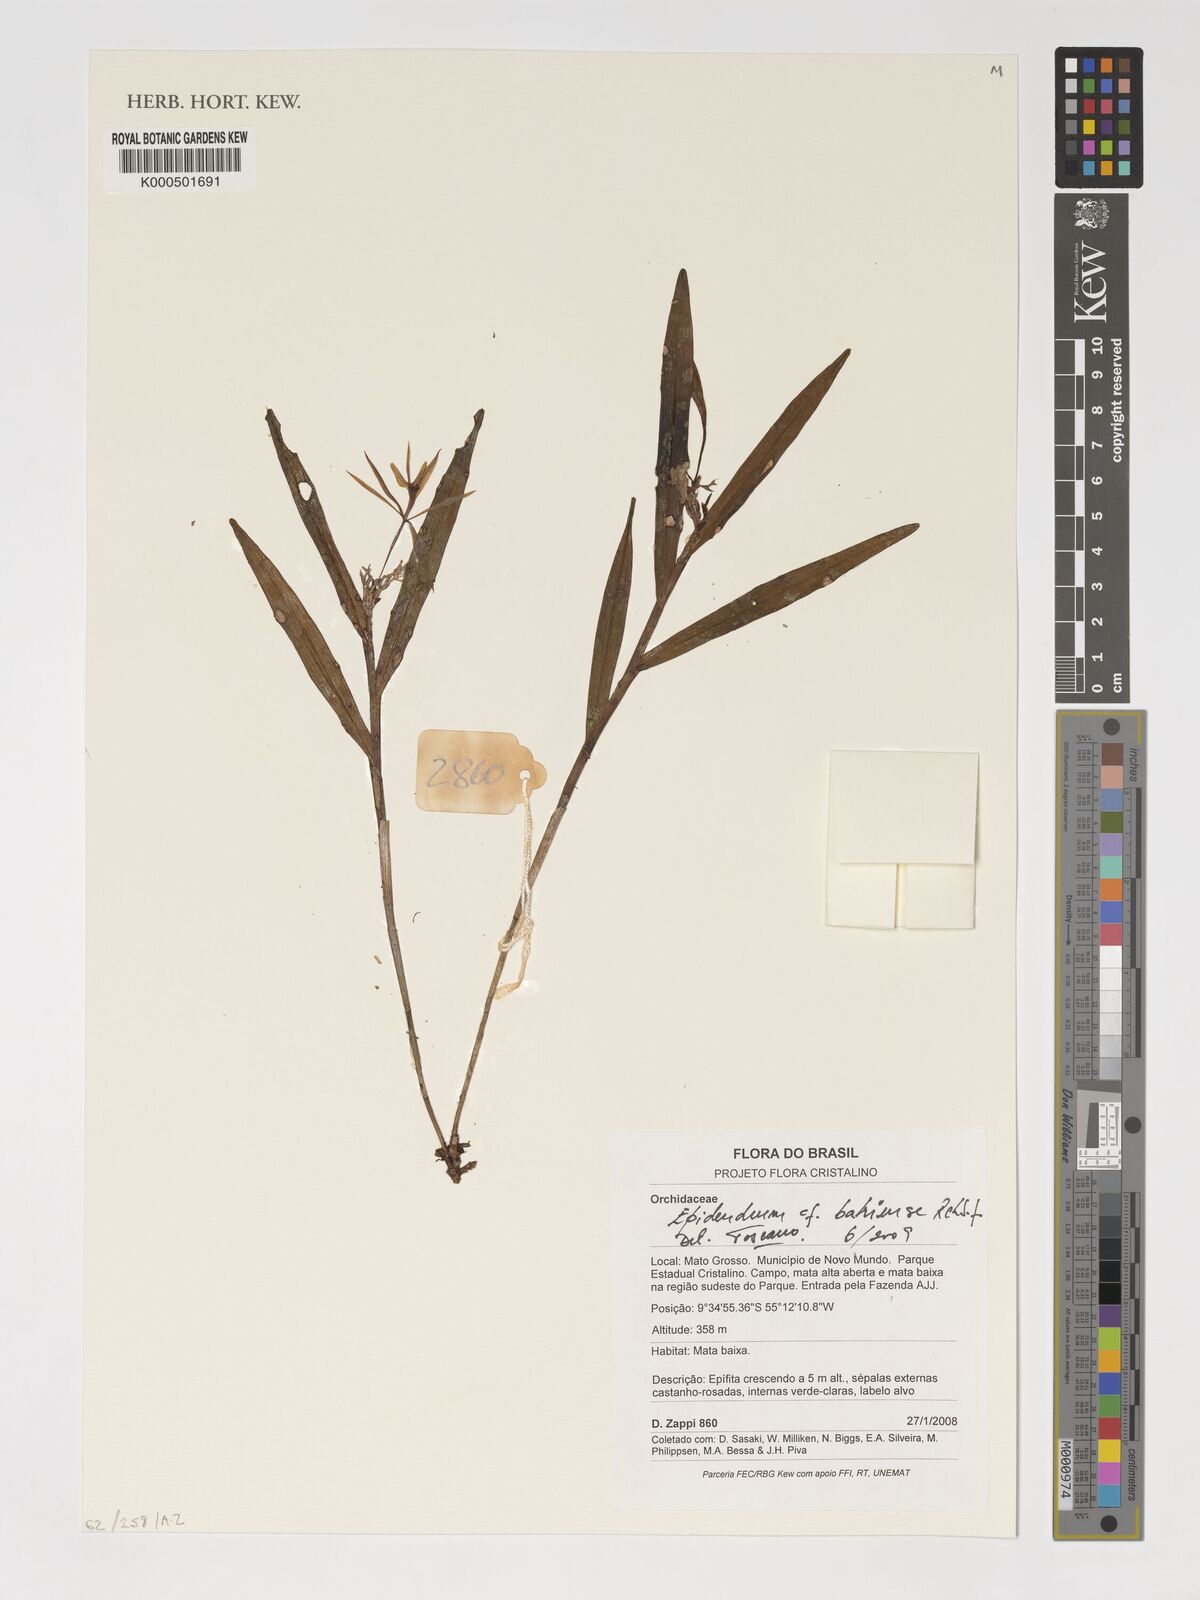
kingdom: Plantae
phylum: Tracheophyta
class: Liliopsida
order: Asparagales
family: Orchidaceae
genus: Epidendrum
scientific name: Epidendrum nocturnum
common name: Night scented orchid
